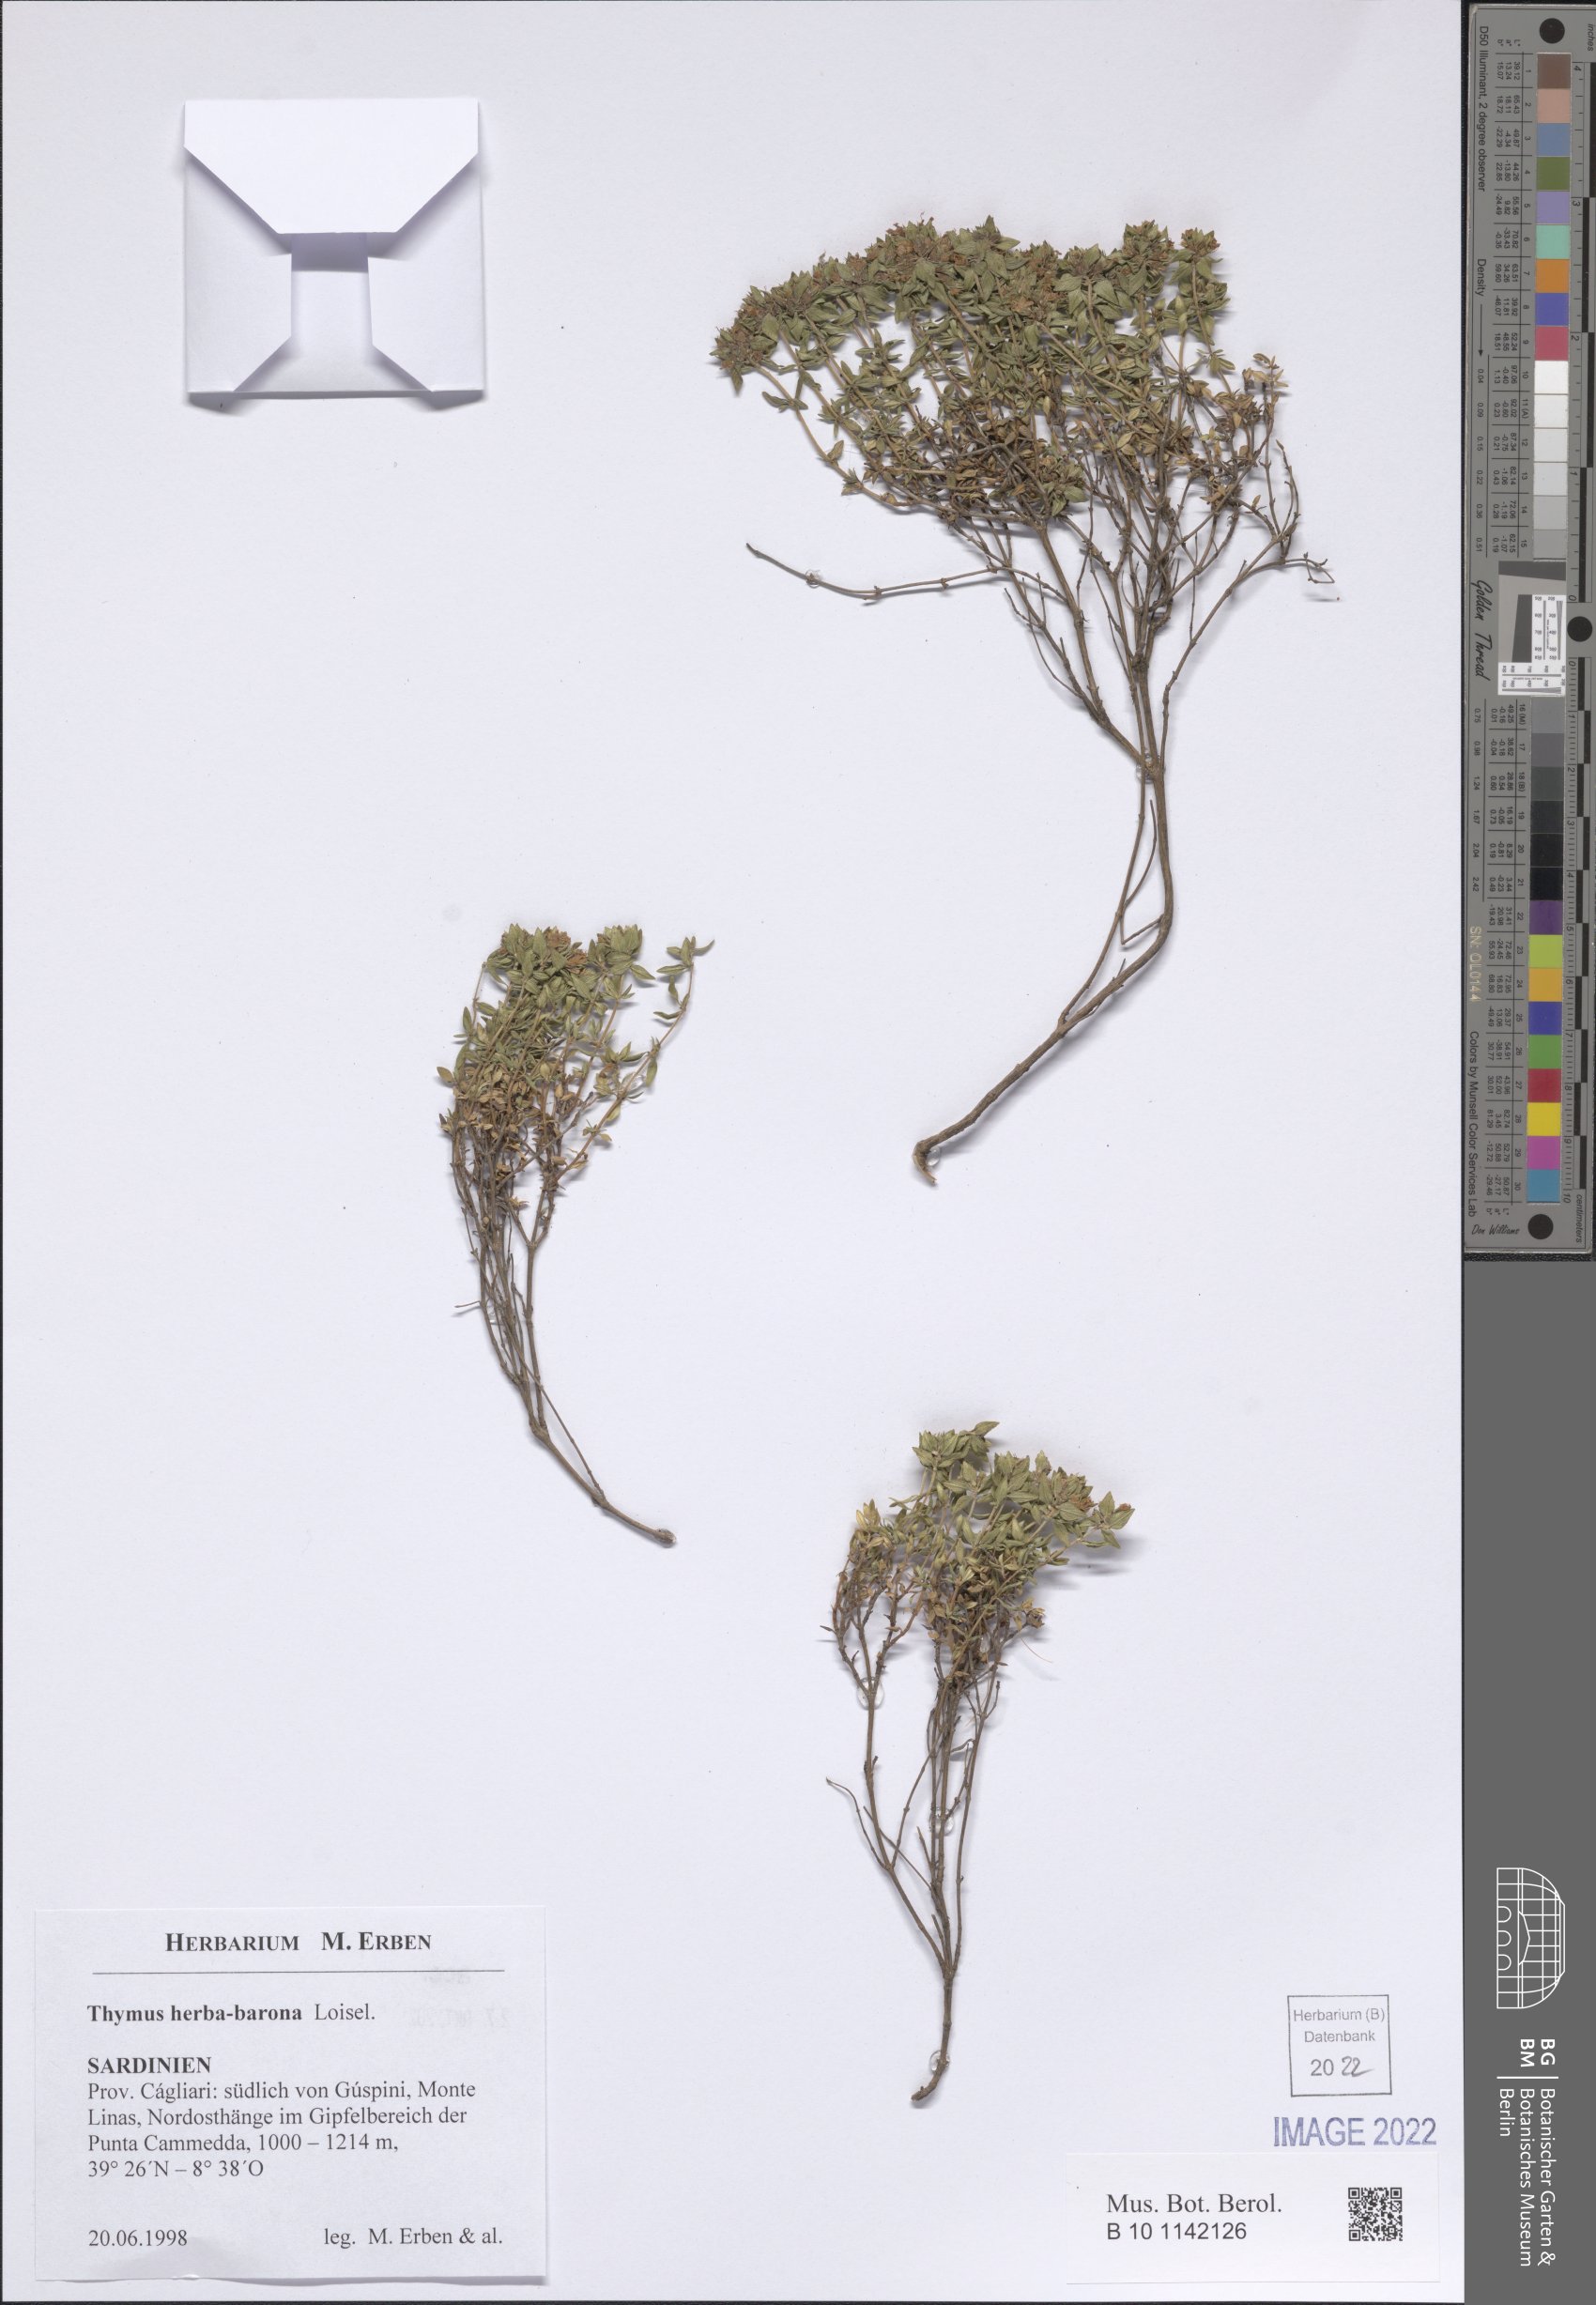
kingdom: Plantae
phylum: Tracheophyta
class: Magnoliopsida
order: Lamiales
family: Lamiaceae
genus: Thymus
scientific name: Thymus herba-barona
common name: Caraway thyme
